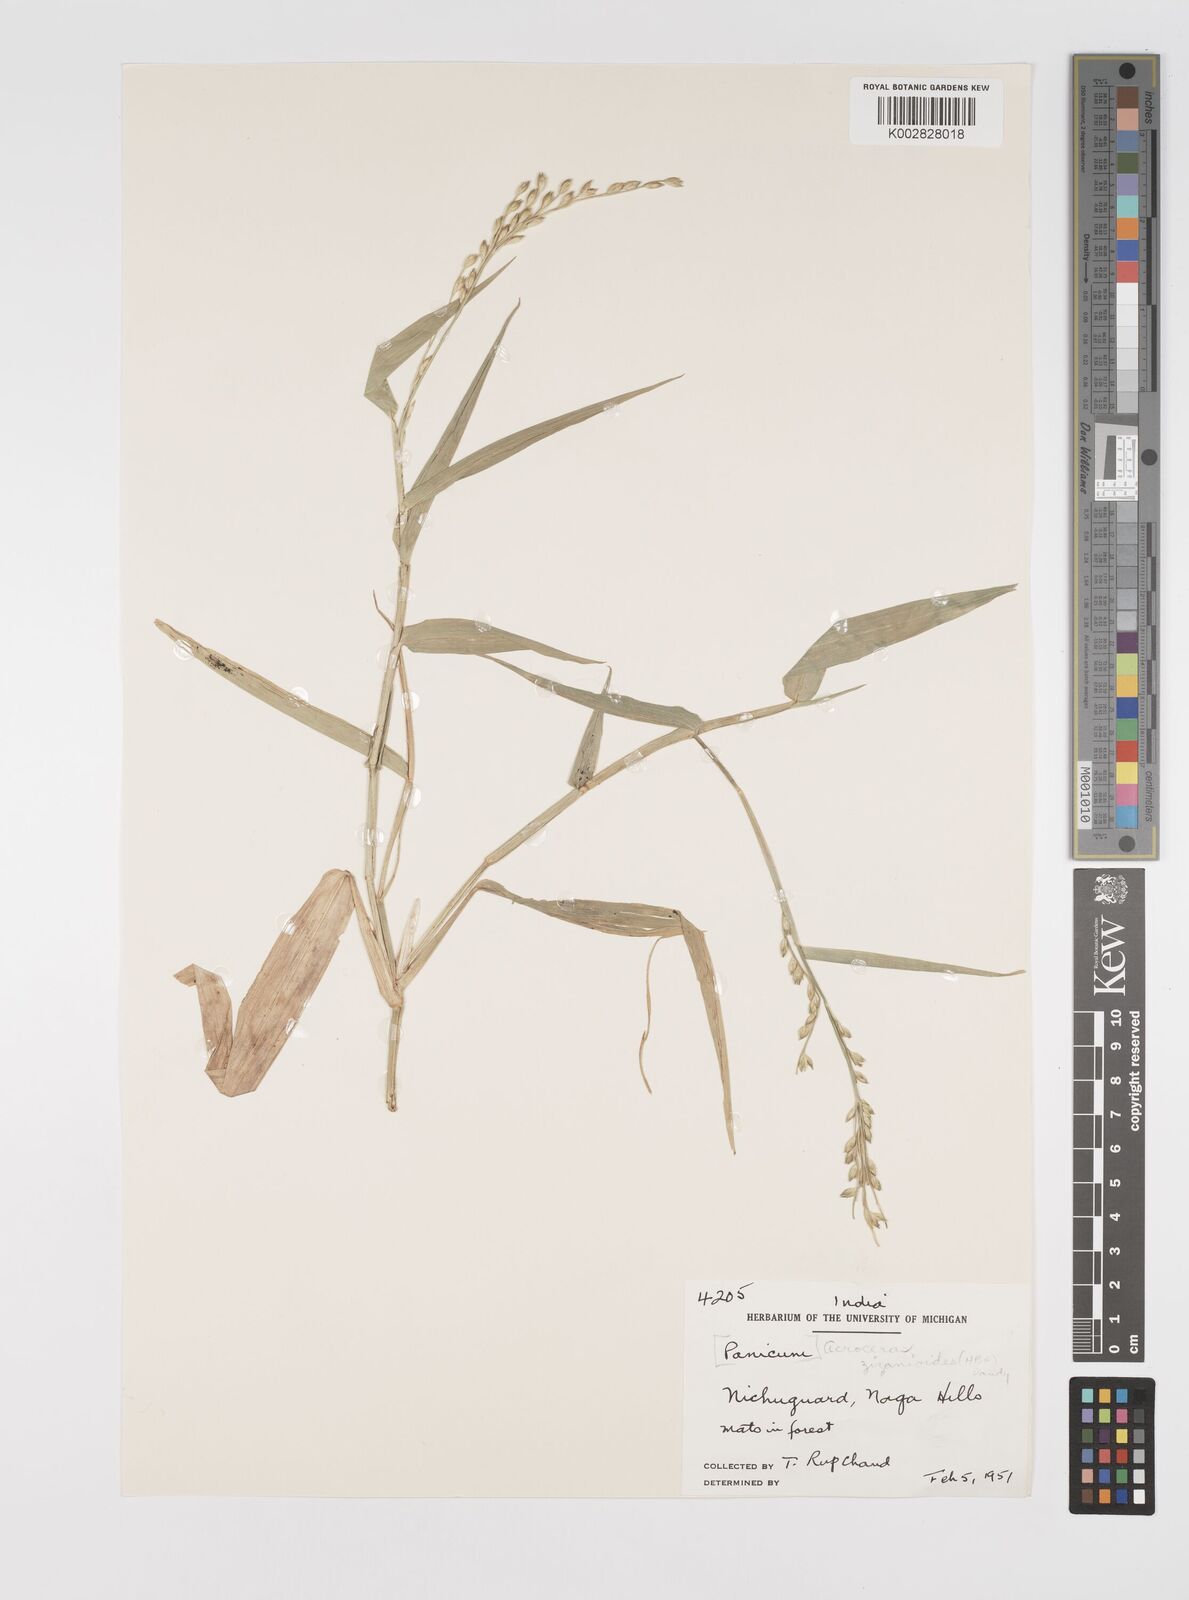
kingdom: Plantae
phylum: Tracheophyta
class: Liliopsida
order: Poales
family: Poaceae
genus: Acroceras
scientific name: Acroceras
